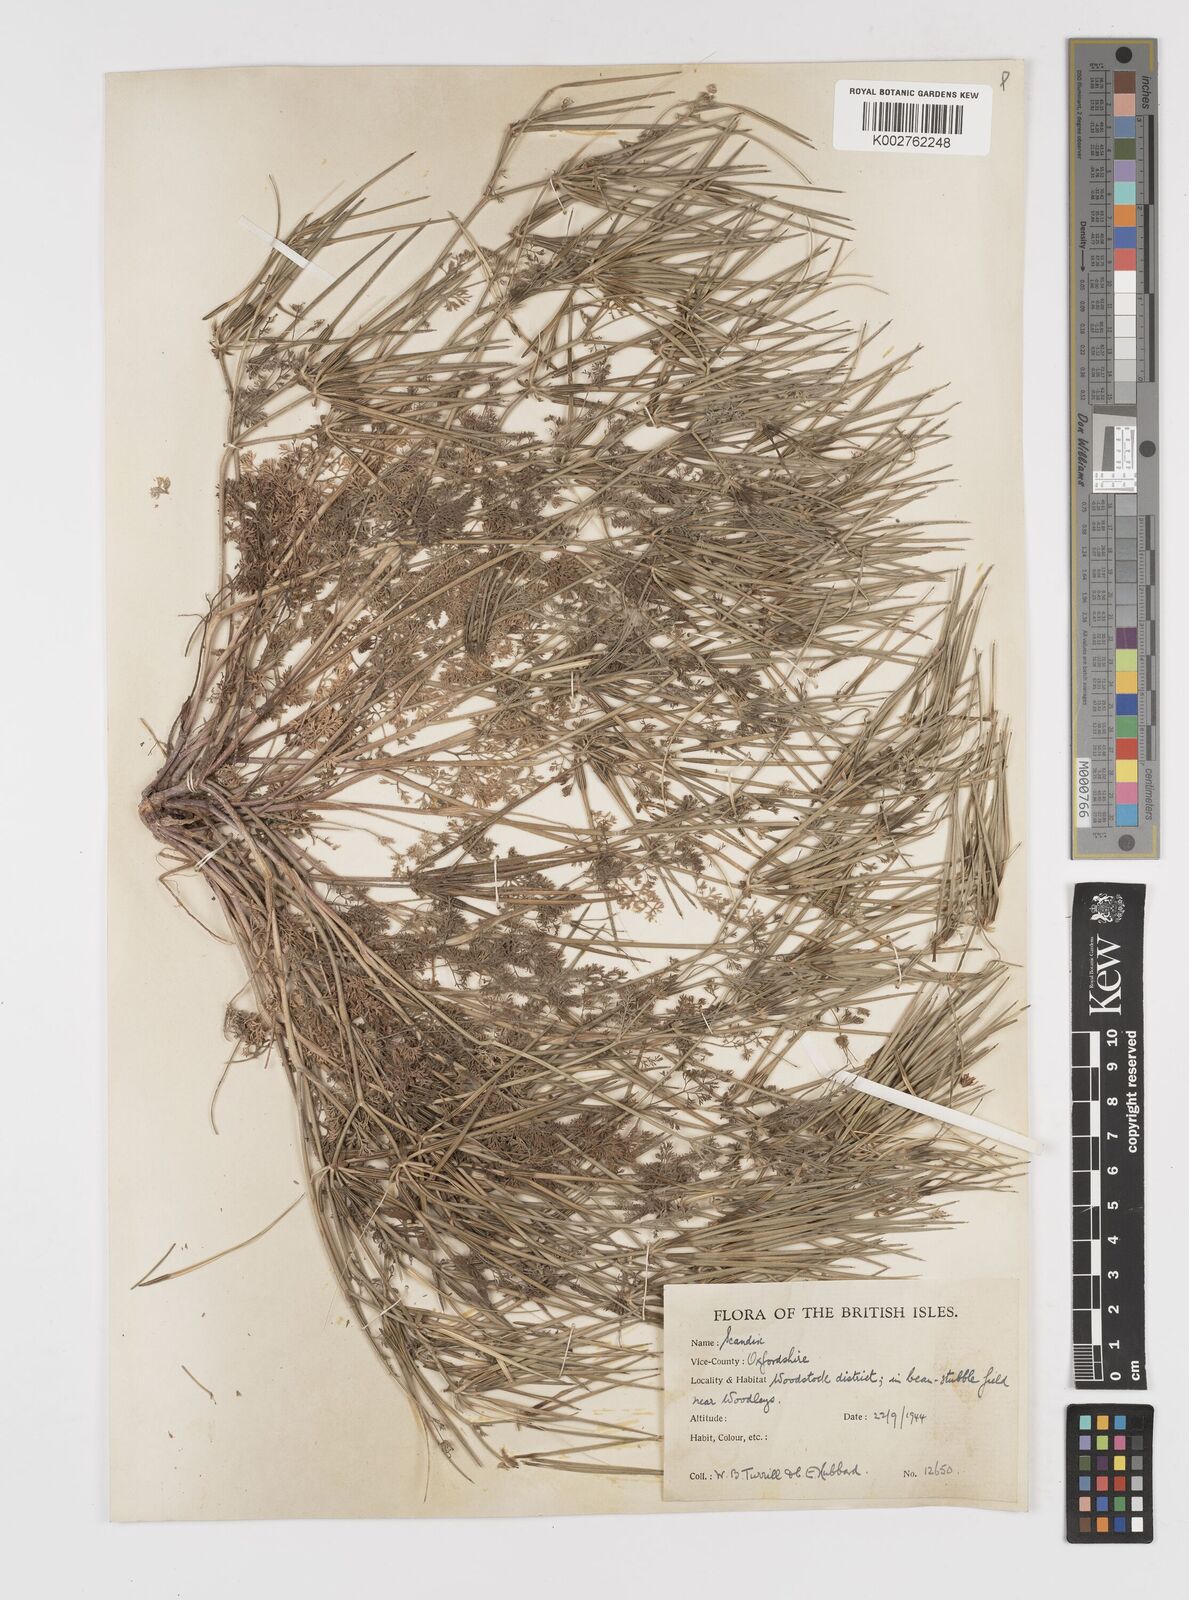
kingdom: Plantae
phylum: Tracheophyta
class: Magnoliopsida
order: Apiales
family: Apiaceae
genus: Scandix
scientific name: Scandix pecten-veneris
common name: Shepherd's-needle
